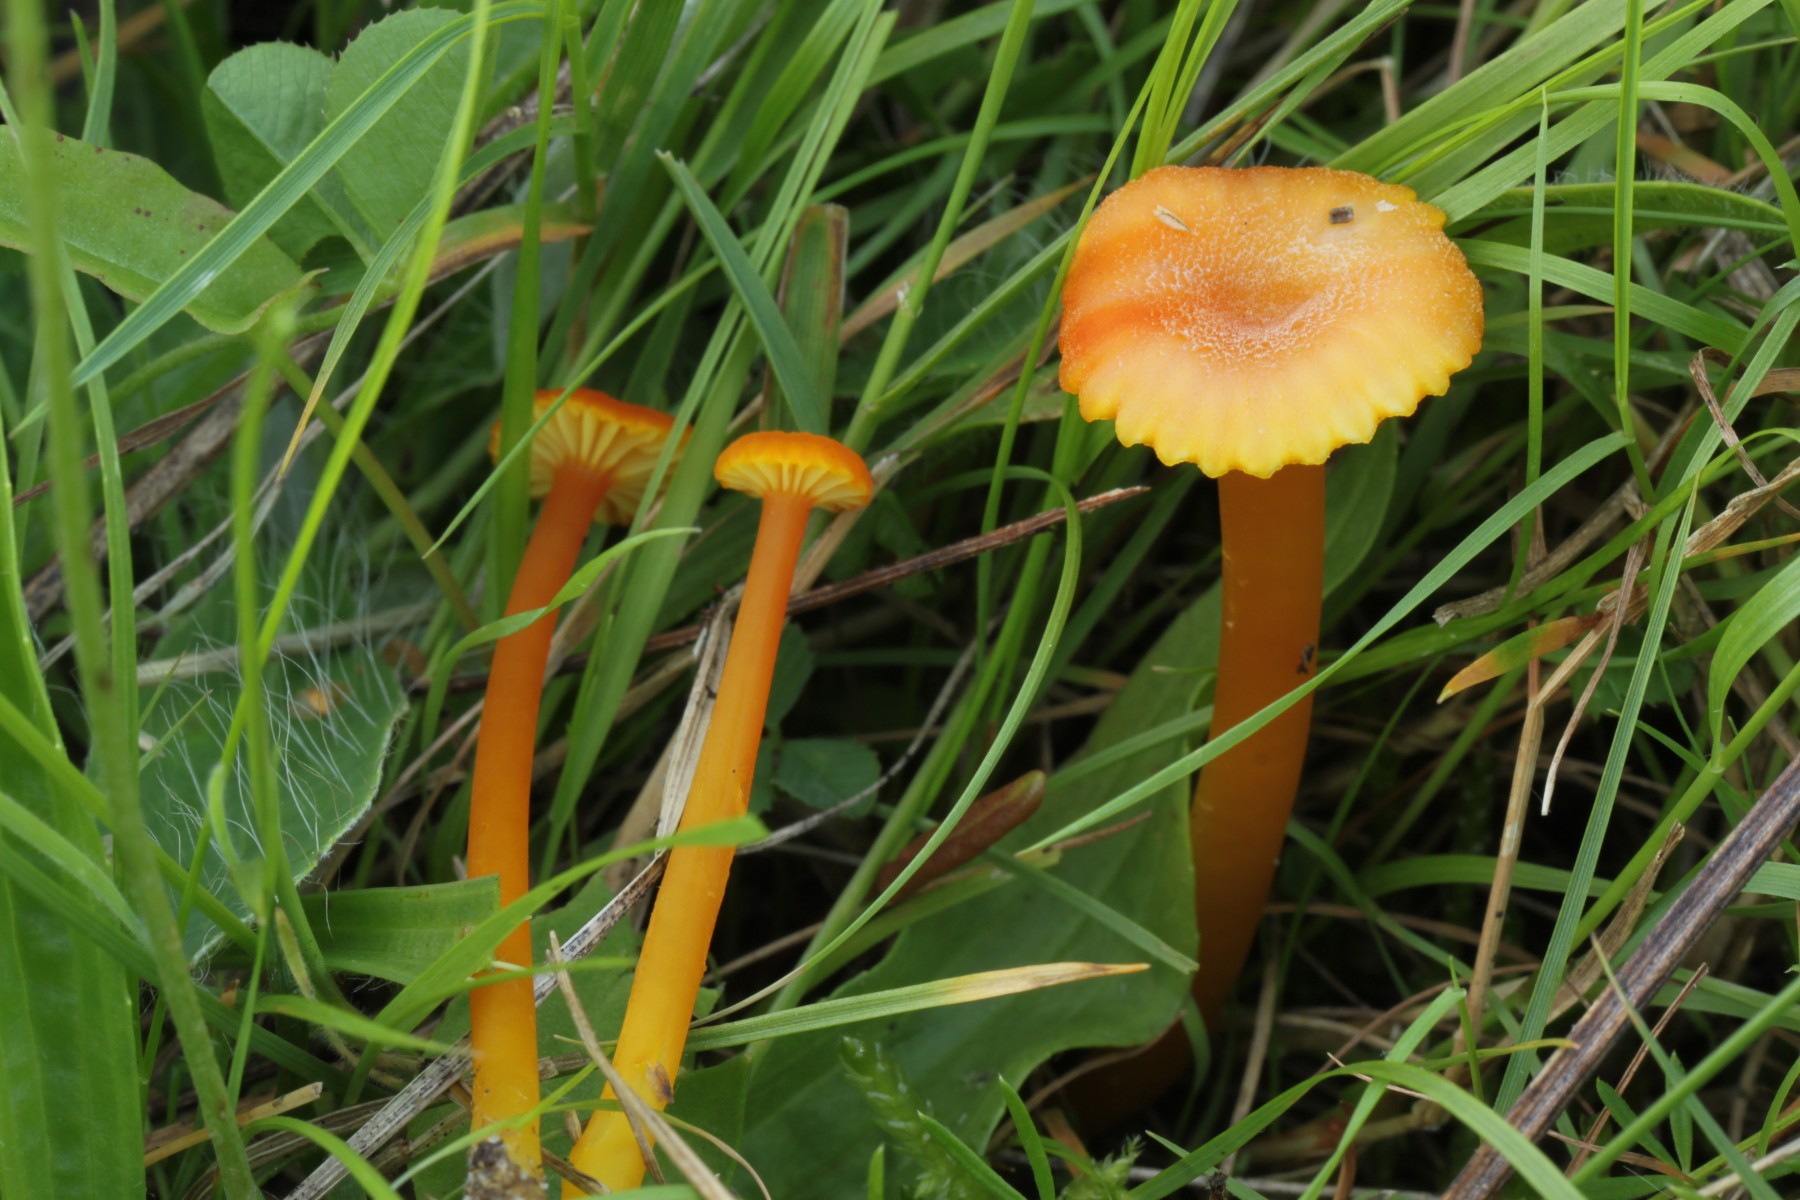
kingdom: Fungi
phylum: Basidiomycota
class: Agaricomycetes
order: Agaricales
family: Hygrophoraceae
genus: Hygrocybe
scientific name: Hygrocybe miniata
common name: mønje-vokshat
